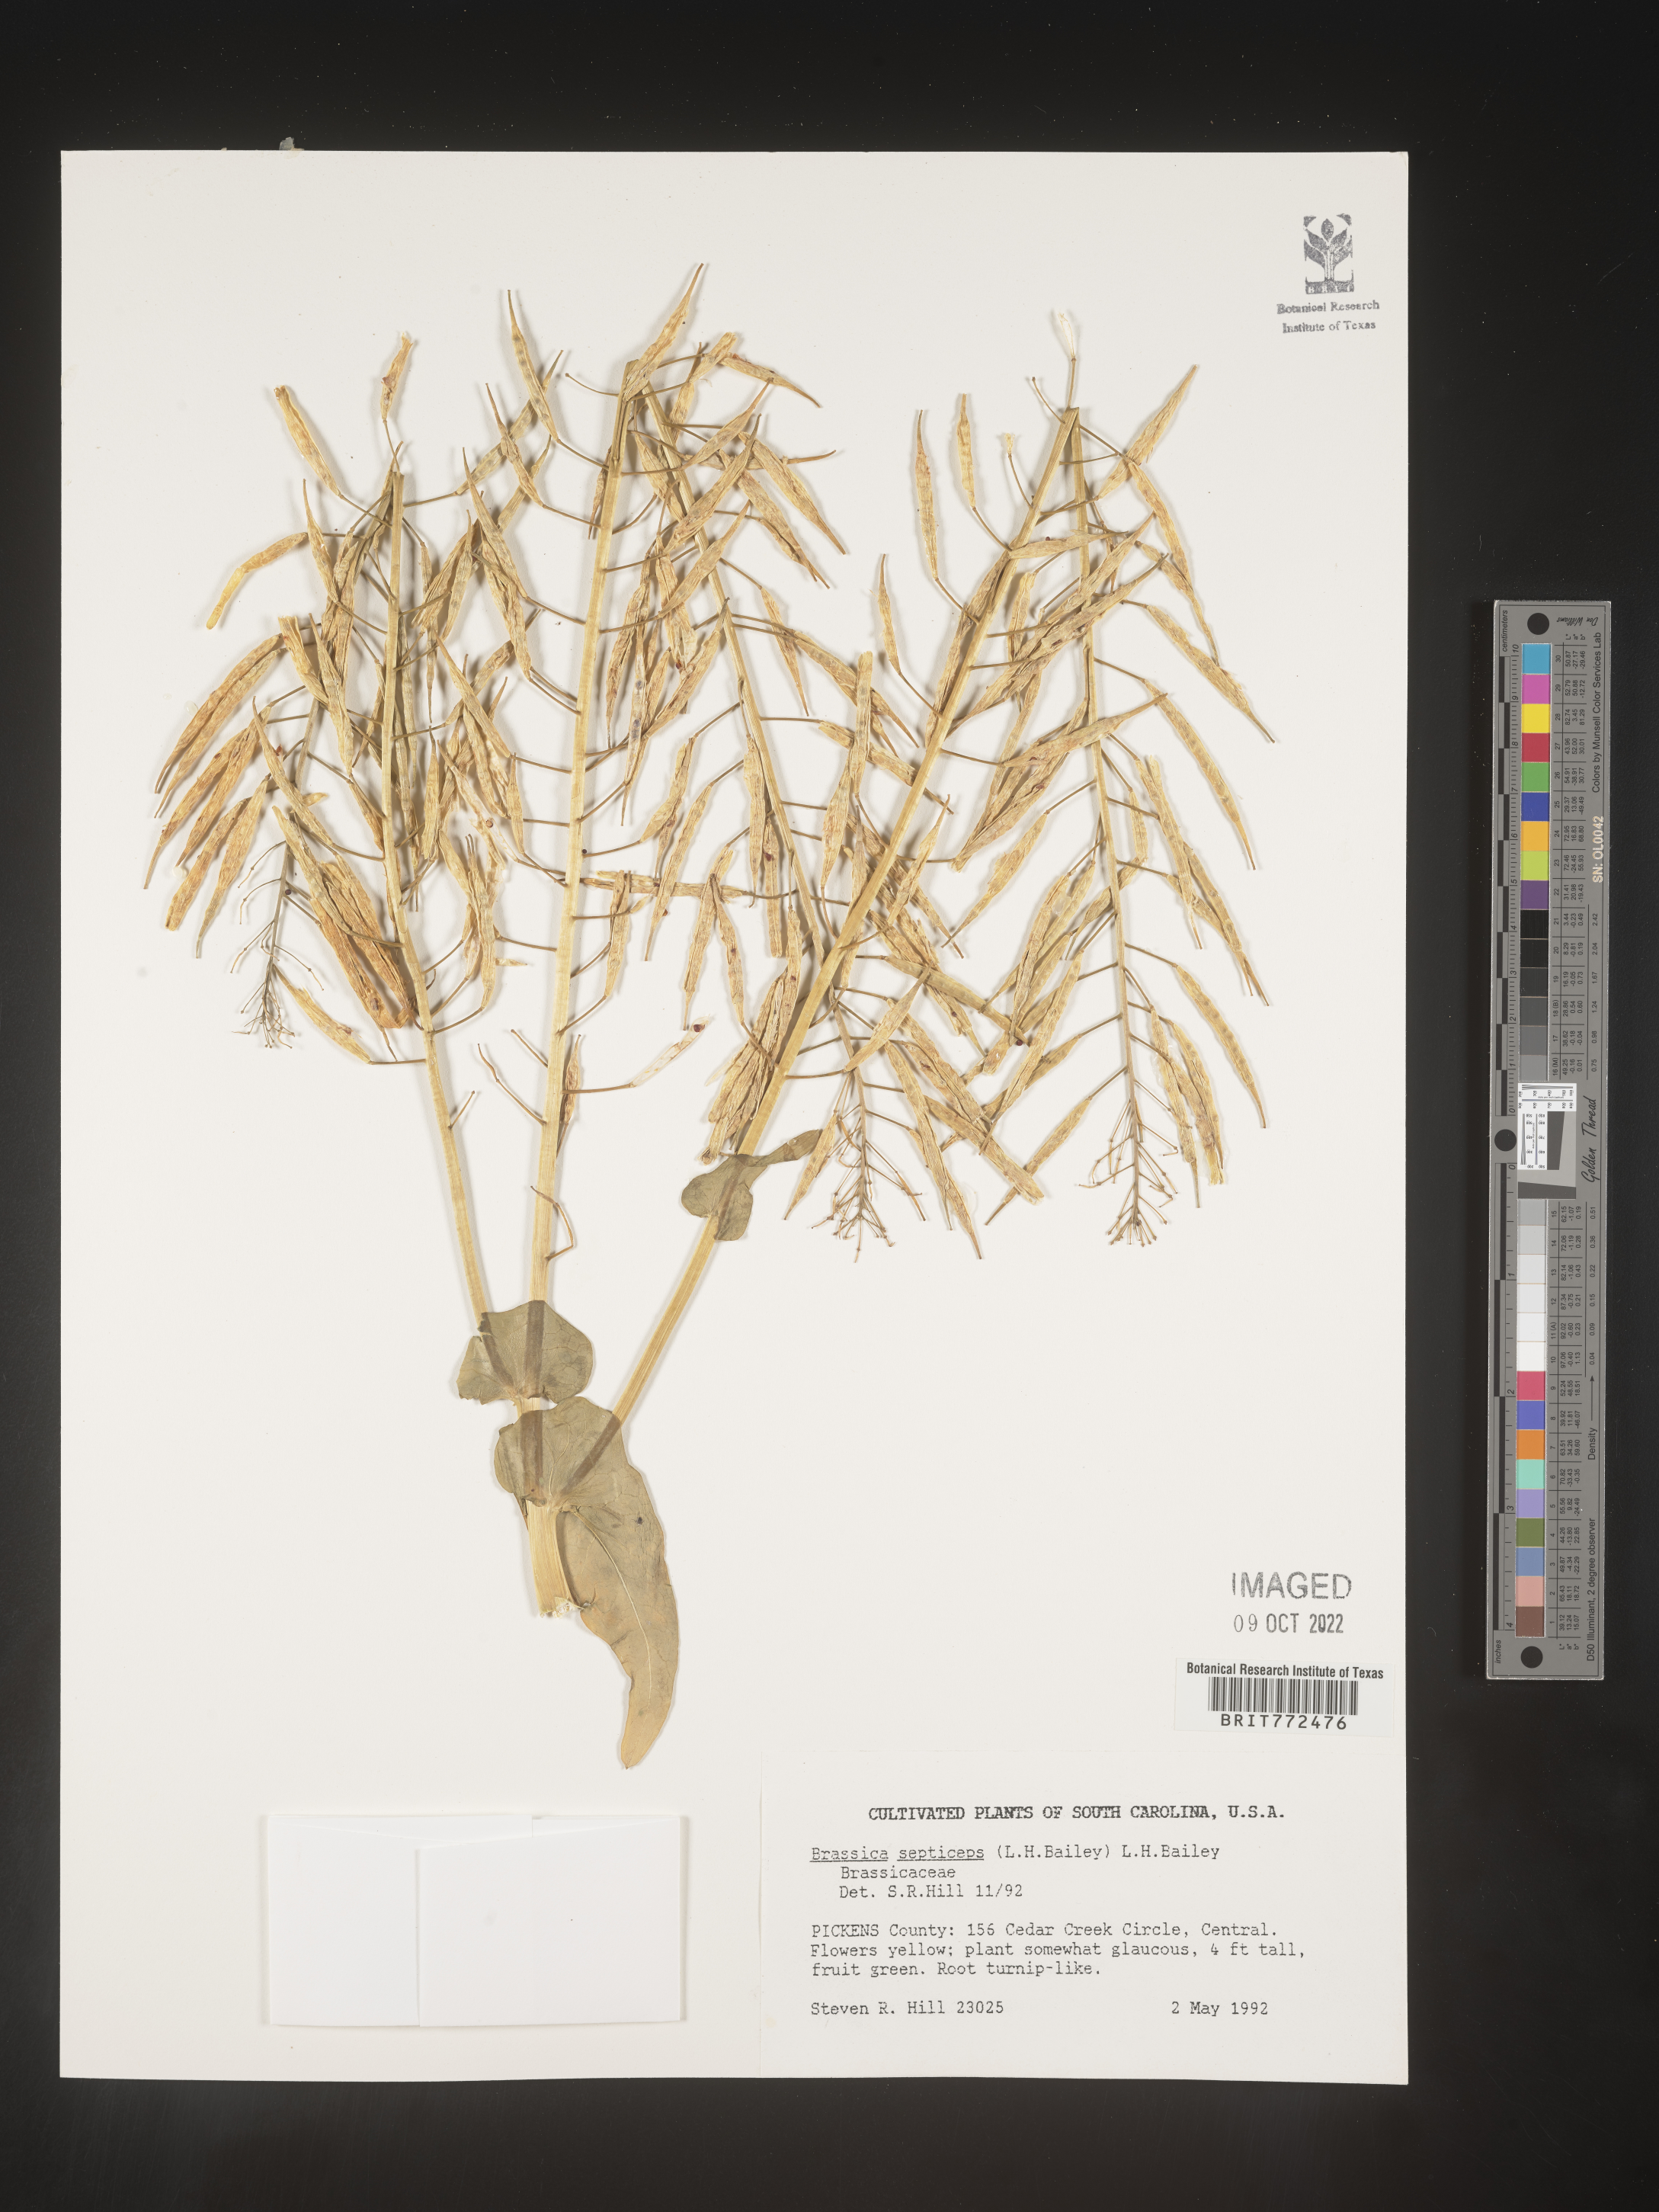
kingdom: Plantae
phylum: Tracheophyta
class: Magnoliopsida
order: Brassicales
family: Brassicaceae
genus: Brassica
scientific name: Brassica
